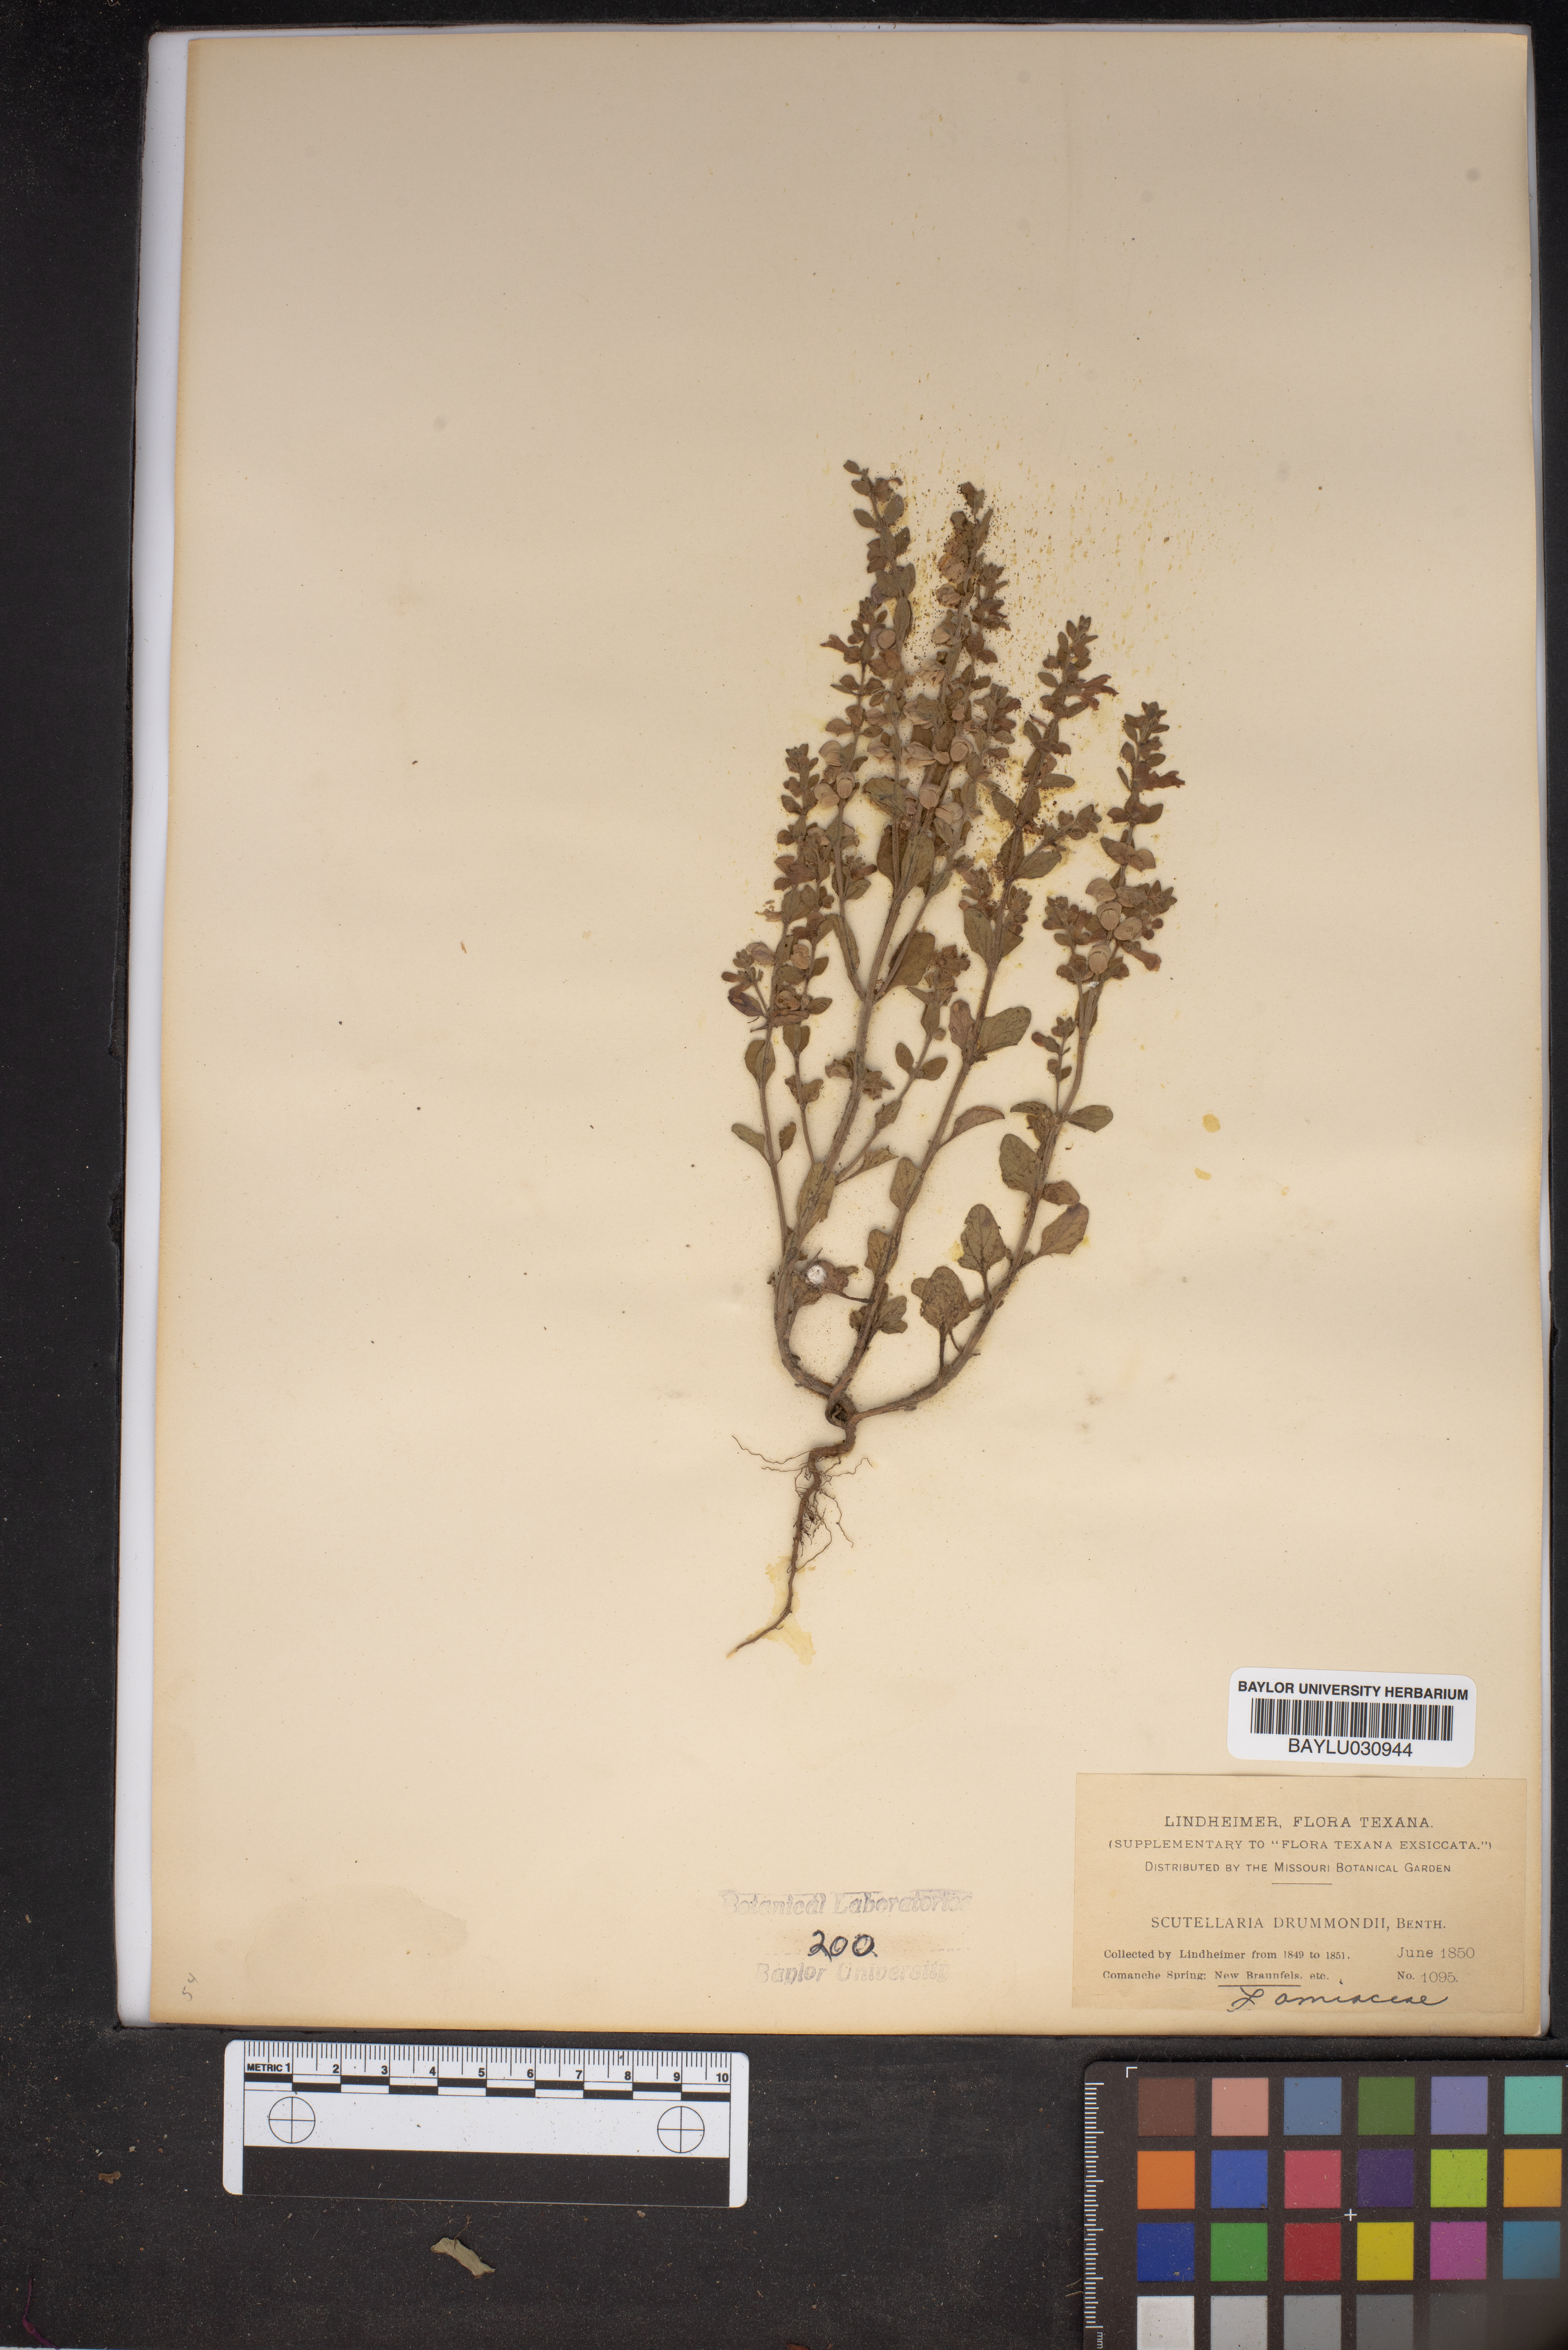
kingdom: Plantae
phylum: Tracheophyta
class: Magnoliopsida
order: Lamiales
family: Lamiaceae
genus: Scutellaria
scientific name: Scutellaria drummondii
